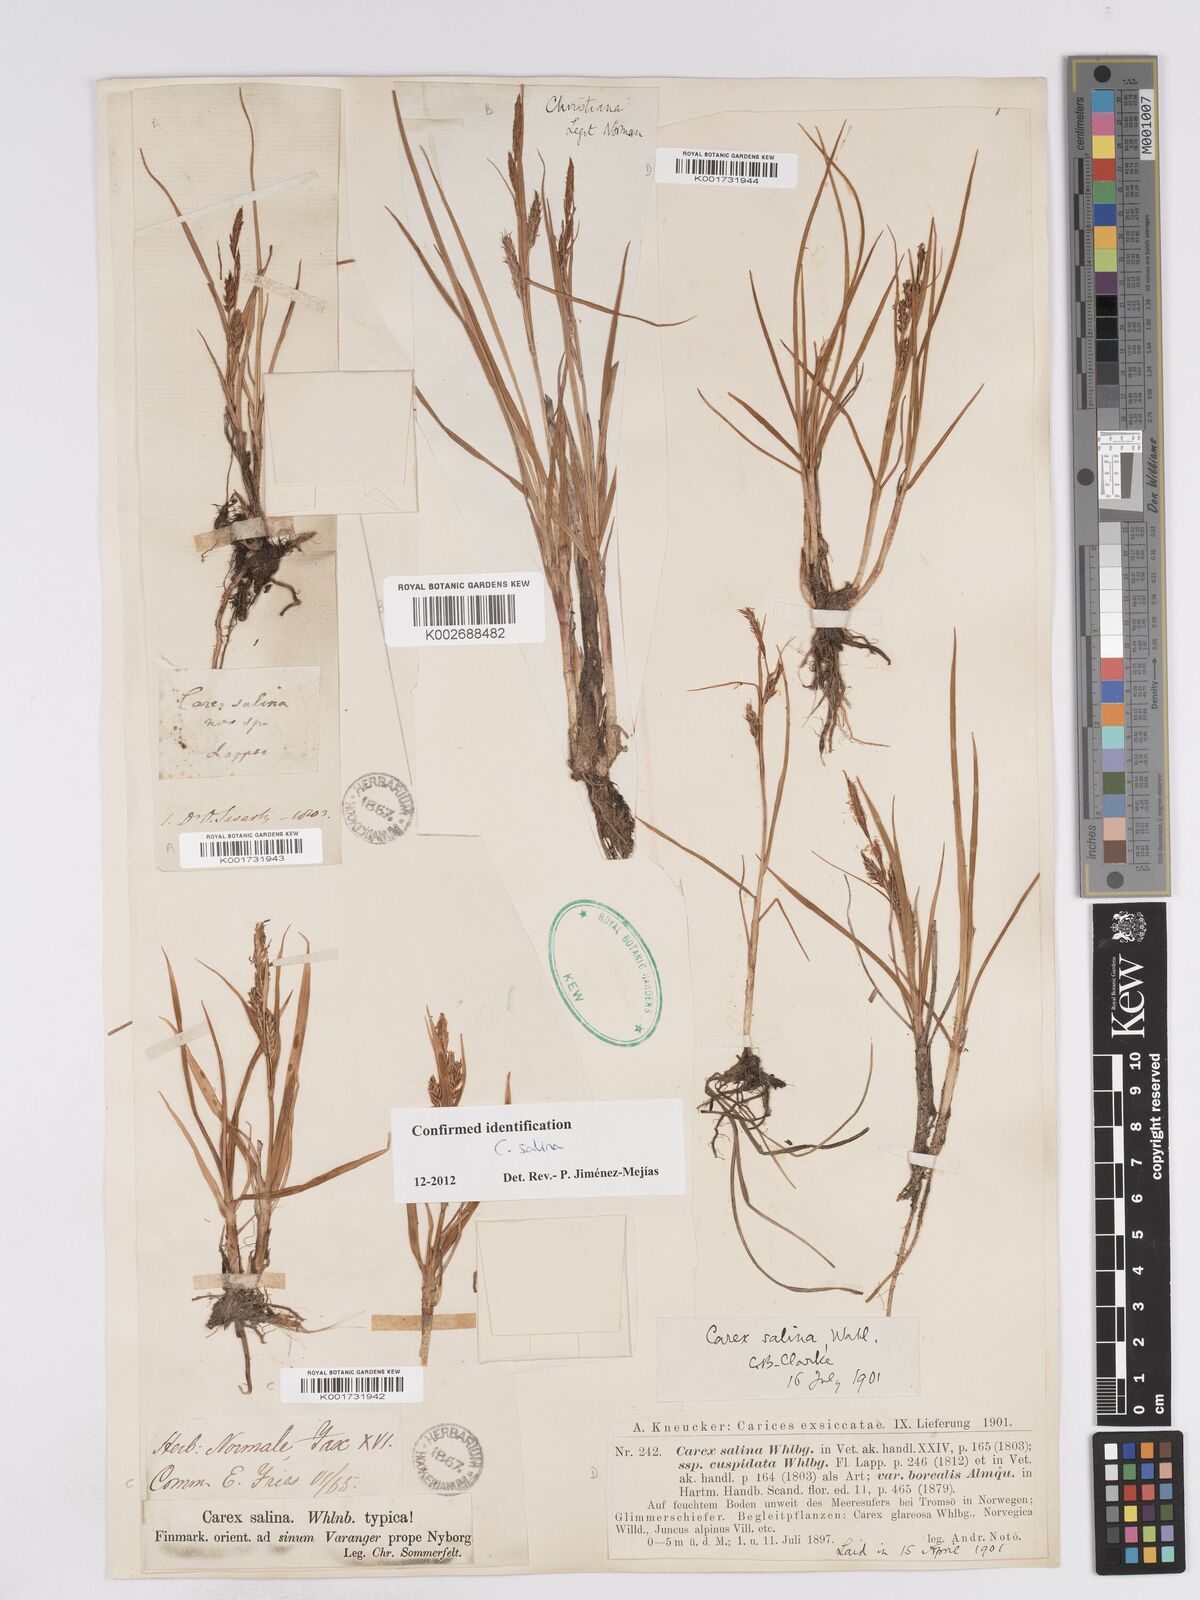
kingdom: Plantae
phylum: Tracheophyta
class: Liliopsida
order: Poales
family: Cyperaceae
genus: Carex
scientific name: Carex salina
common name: Saltmarsh sedge
